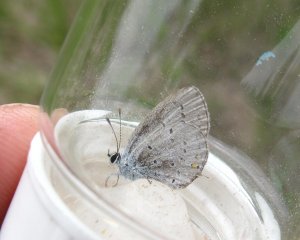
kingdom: Animalia
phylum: Arthropoda
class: Insecta
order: Lepidoptera
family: Lycaenidae
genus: Elkalyce
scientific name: Elkalyce comyntas
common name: Eastern Tailed-Blue
